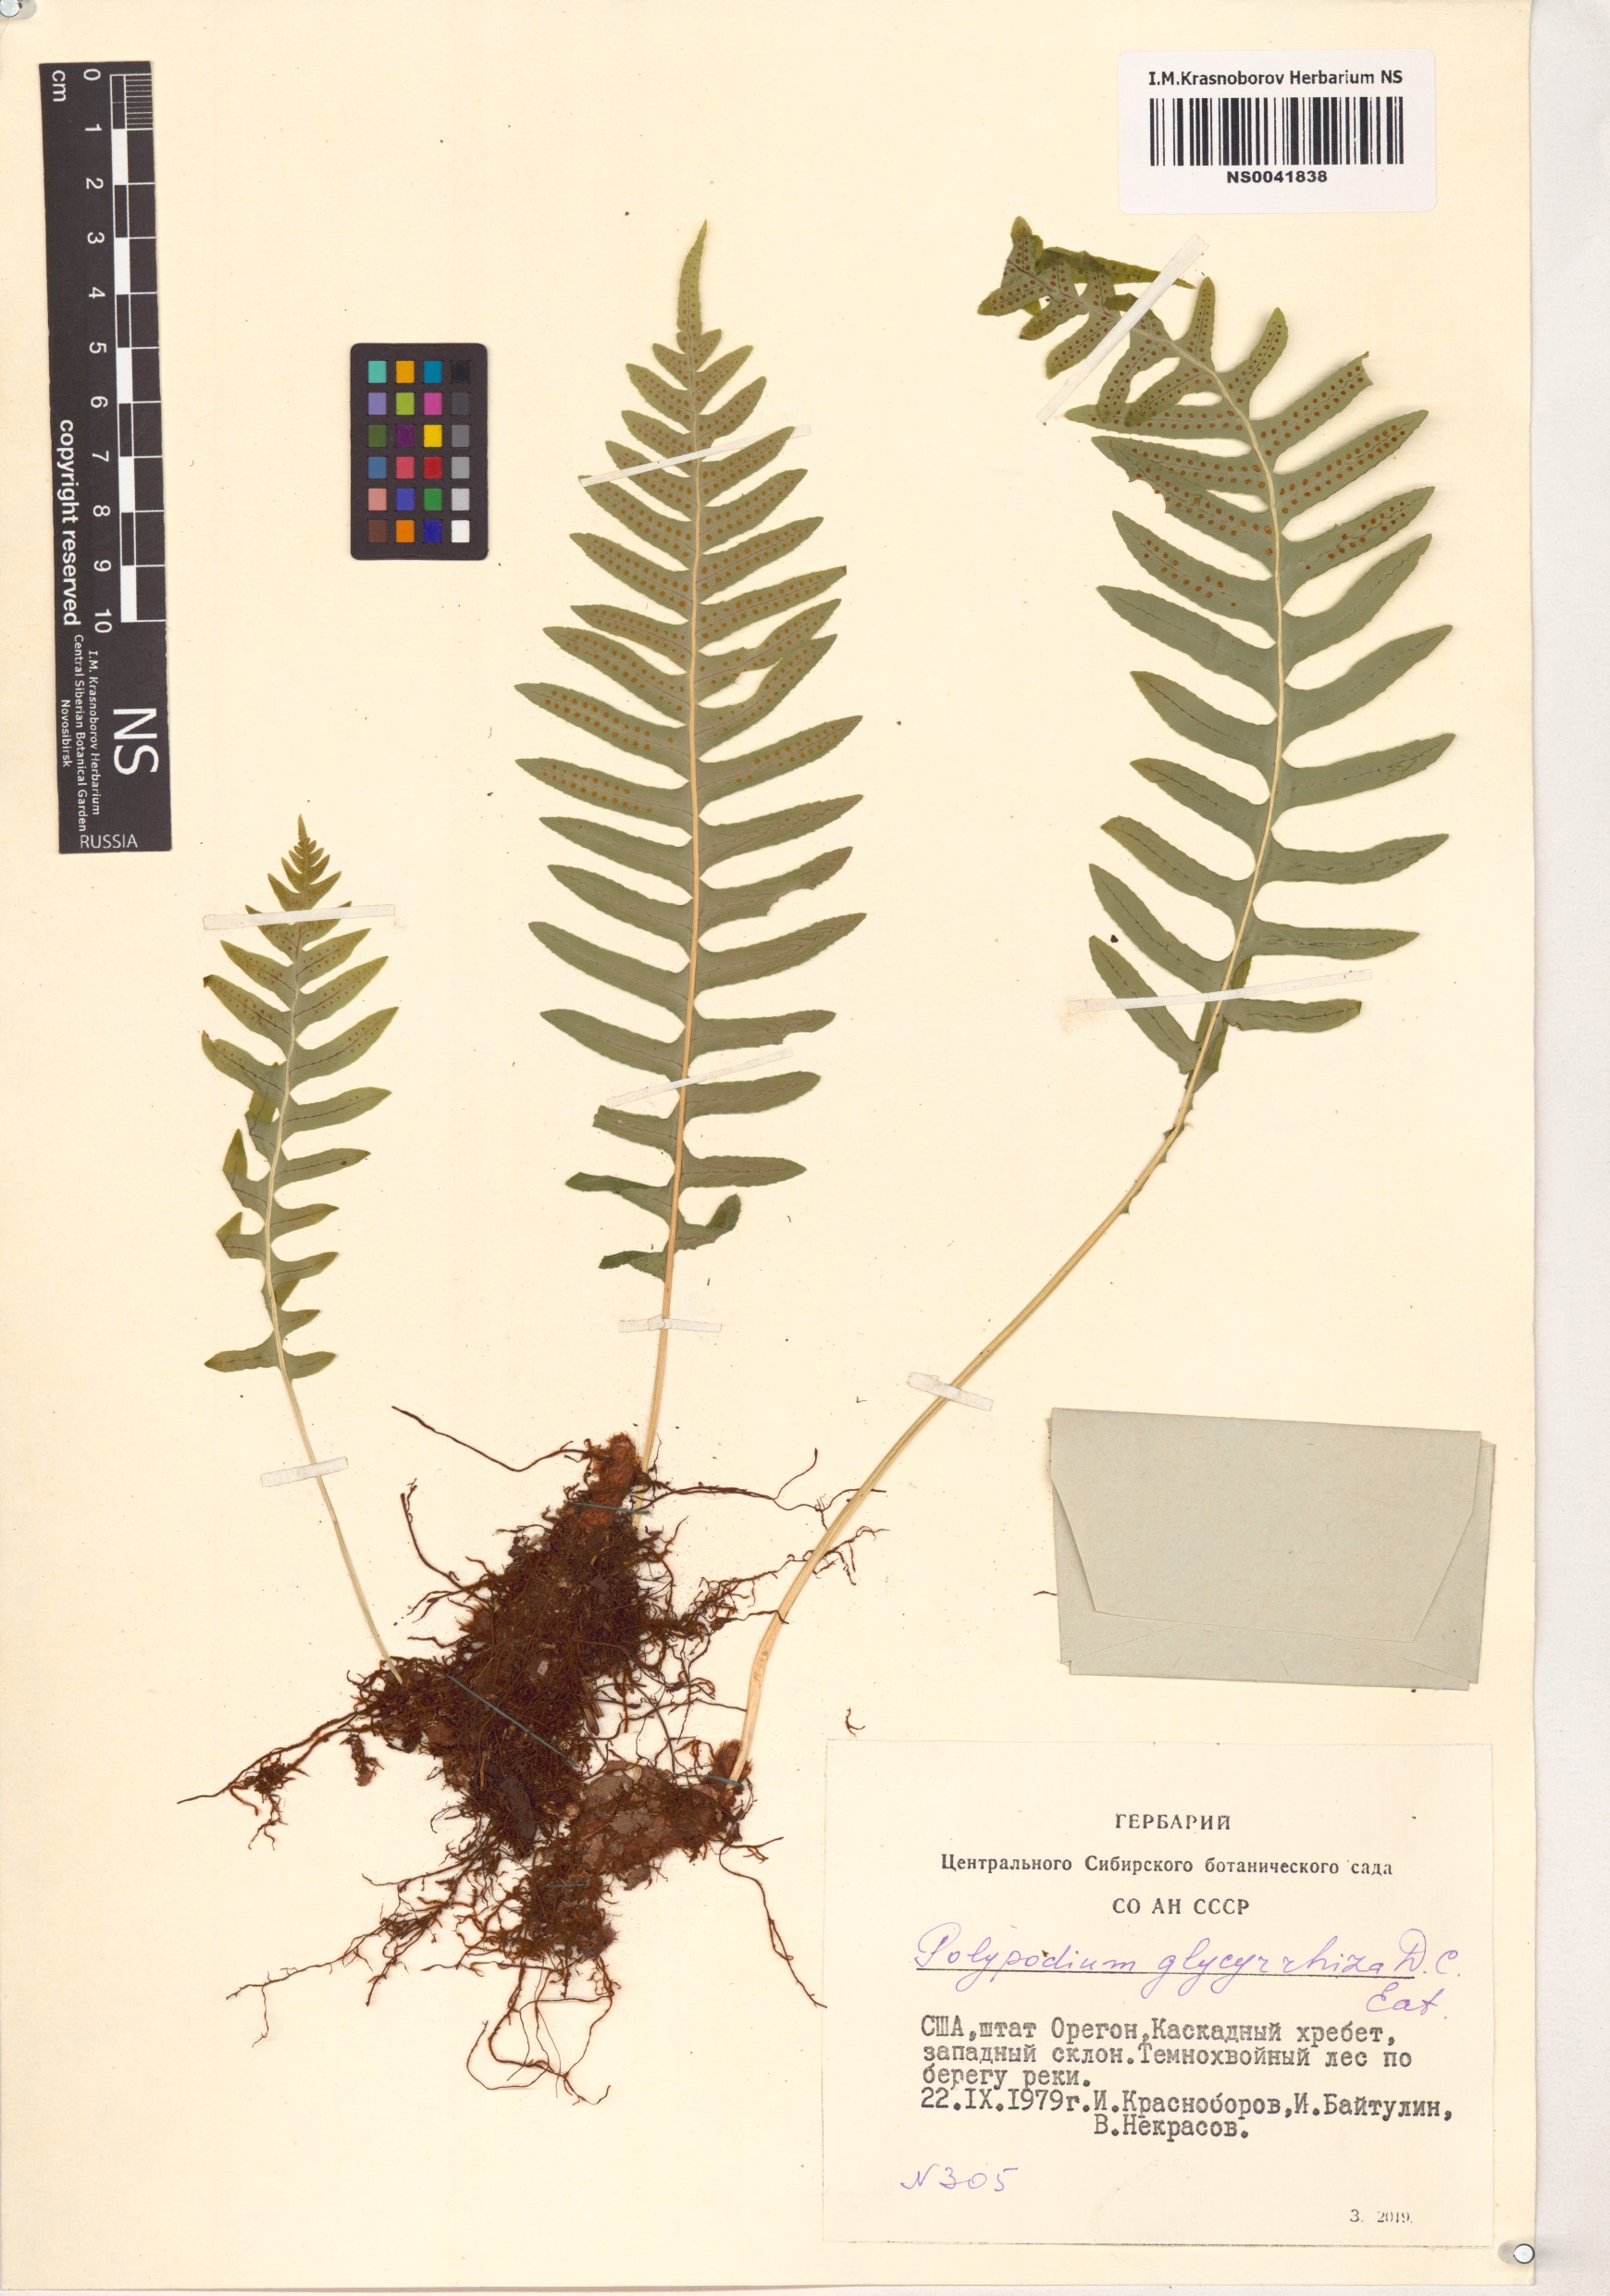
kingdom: Plantae
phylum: Tracheophyta
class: Polypodiopsida
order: Polypodiales
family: Polypodiaceae
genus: Polypodium
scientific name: Polypodium glycyrrhiza
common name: Licorice fern
